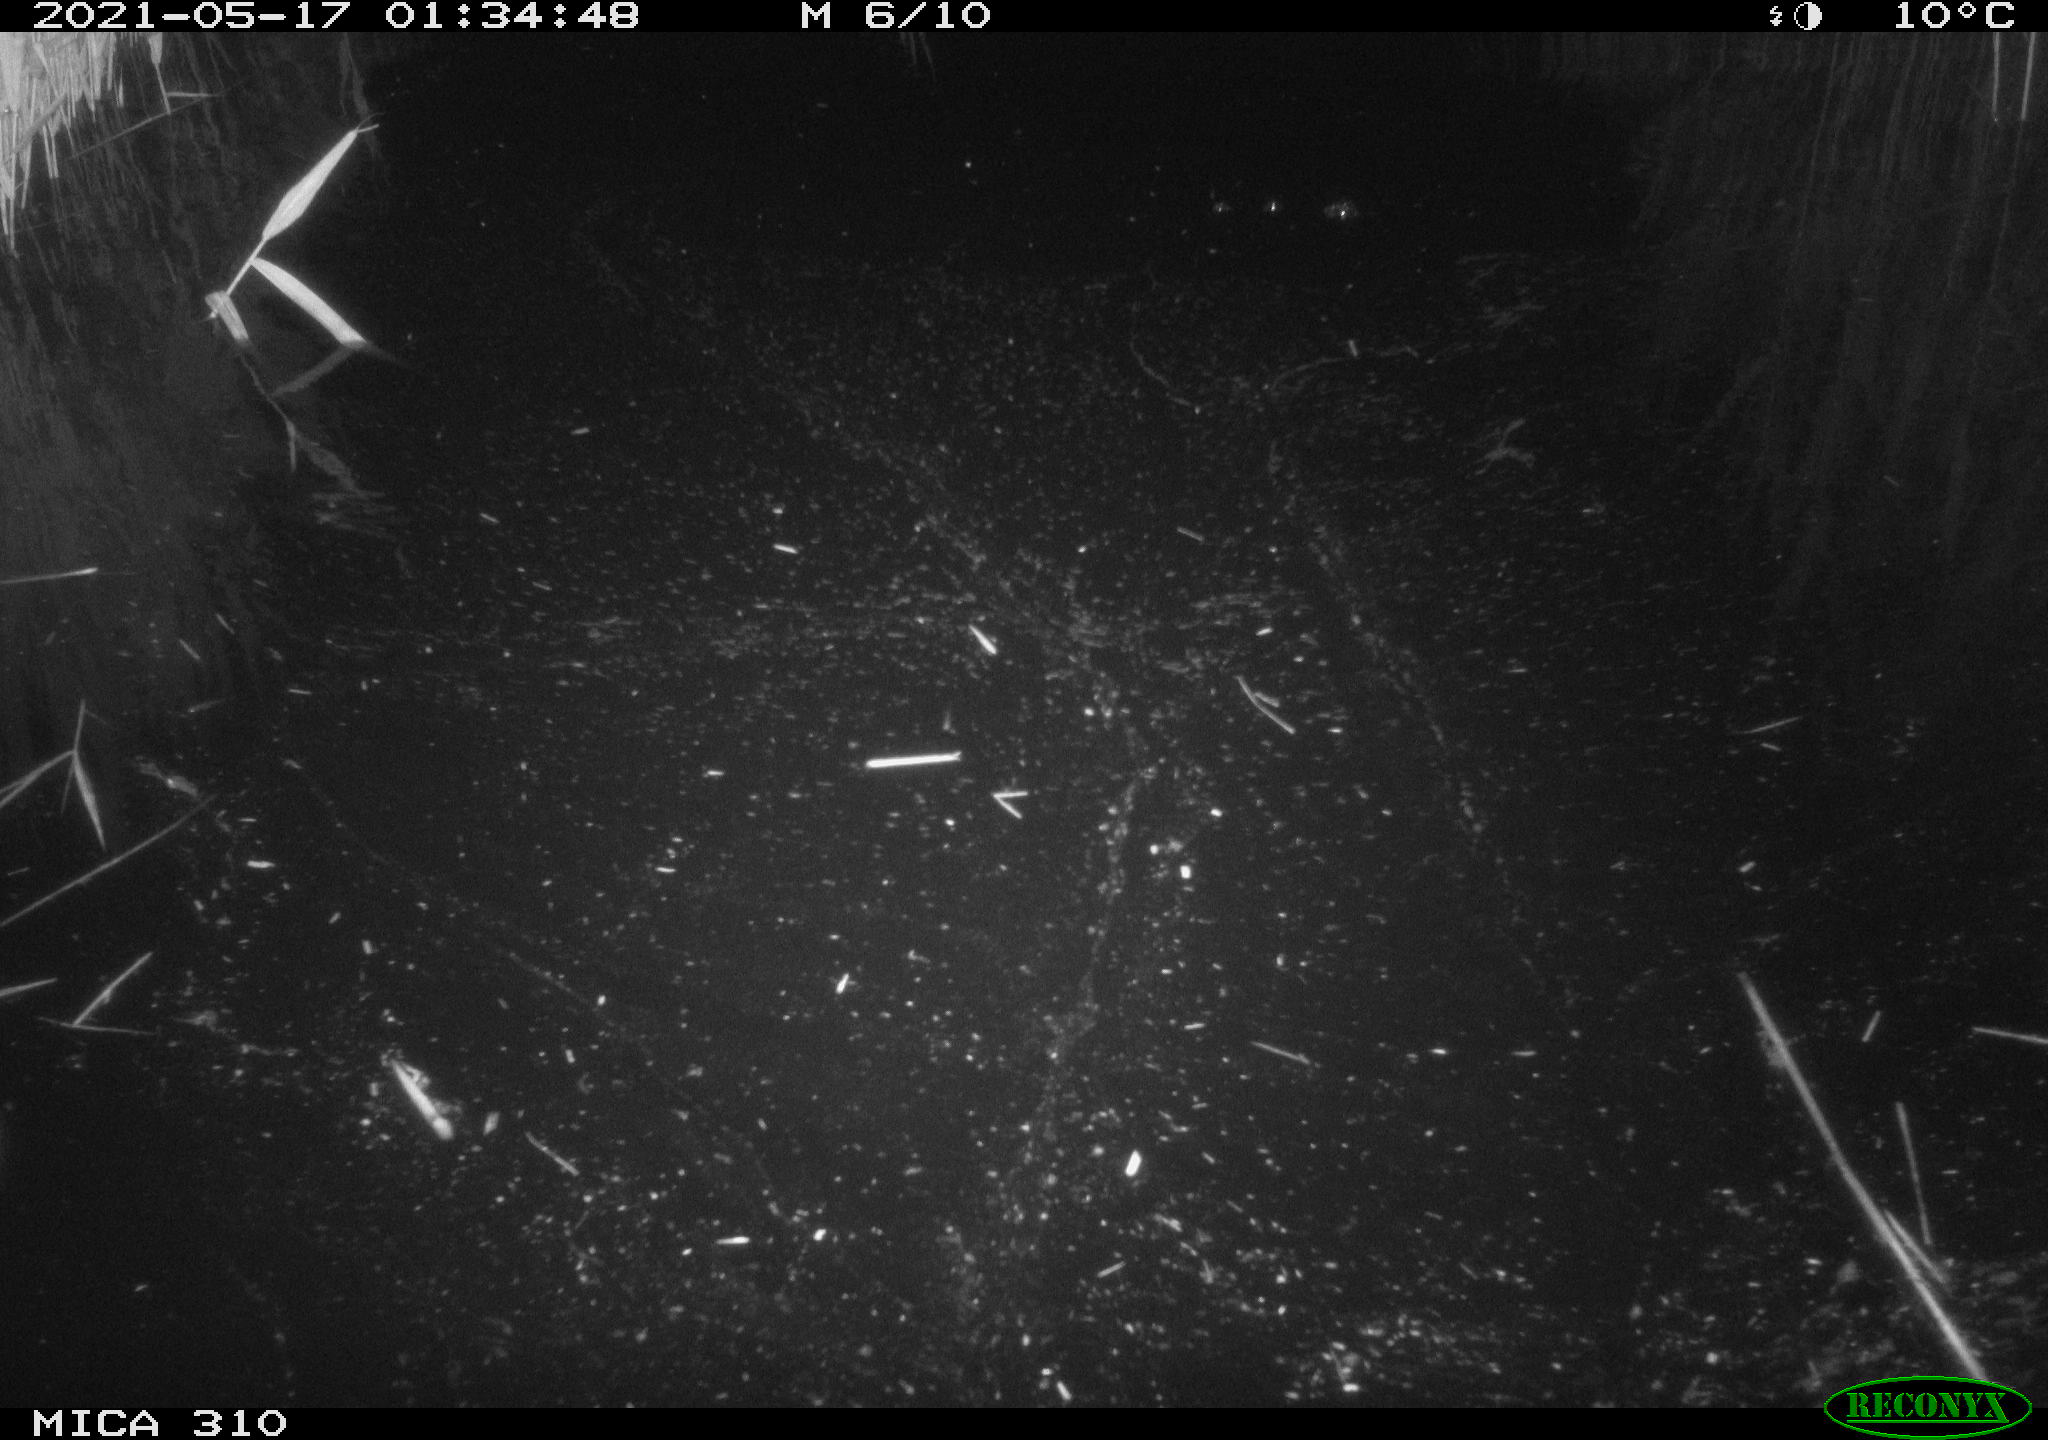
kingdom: Animalia
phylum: Chordata
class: Aves
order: Anseriformes
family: Anatidae
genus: Anas
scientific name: Anas platyrhynchos
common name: Mallard
